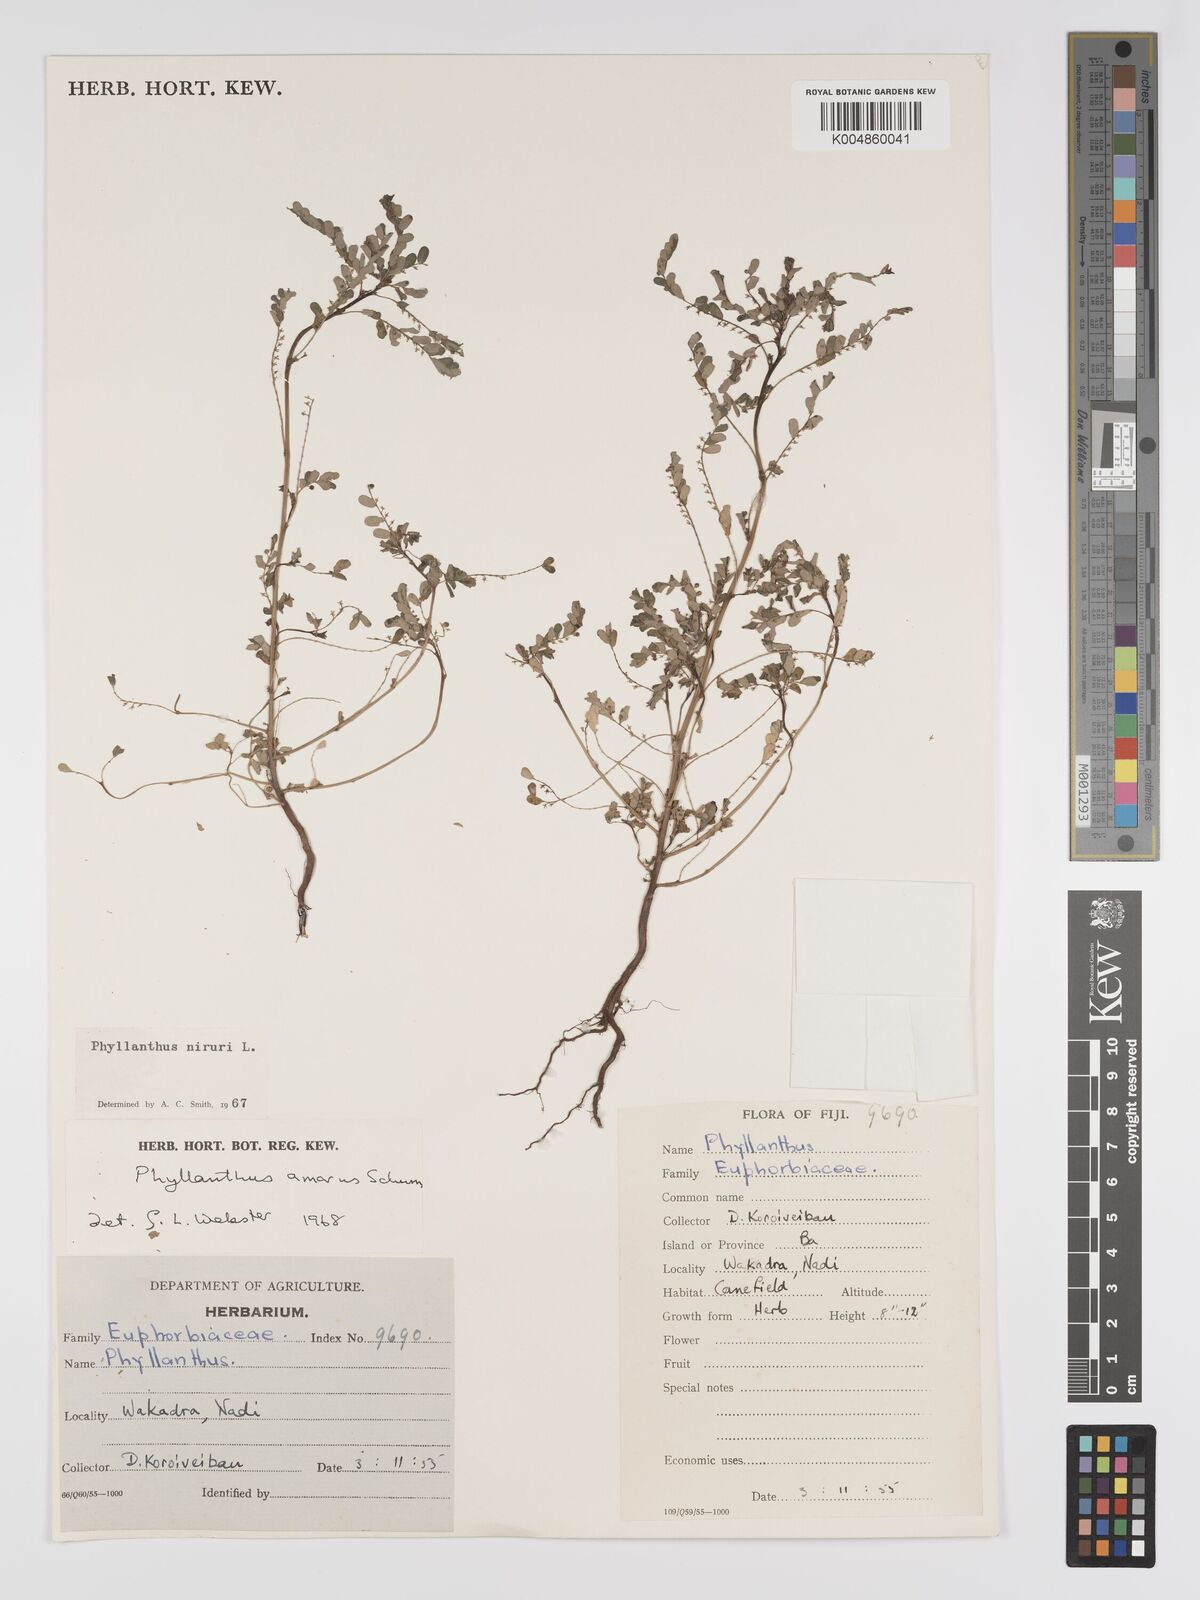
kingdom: Plantae
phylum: Tracheophyta
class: Magnoliopsida
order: Malpighiales
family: Phyllanthaceae
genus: Phyllanthus
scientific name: Phyllanthus niruri
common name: Niruri
